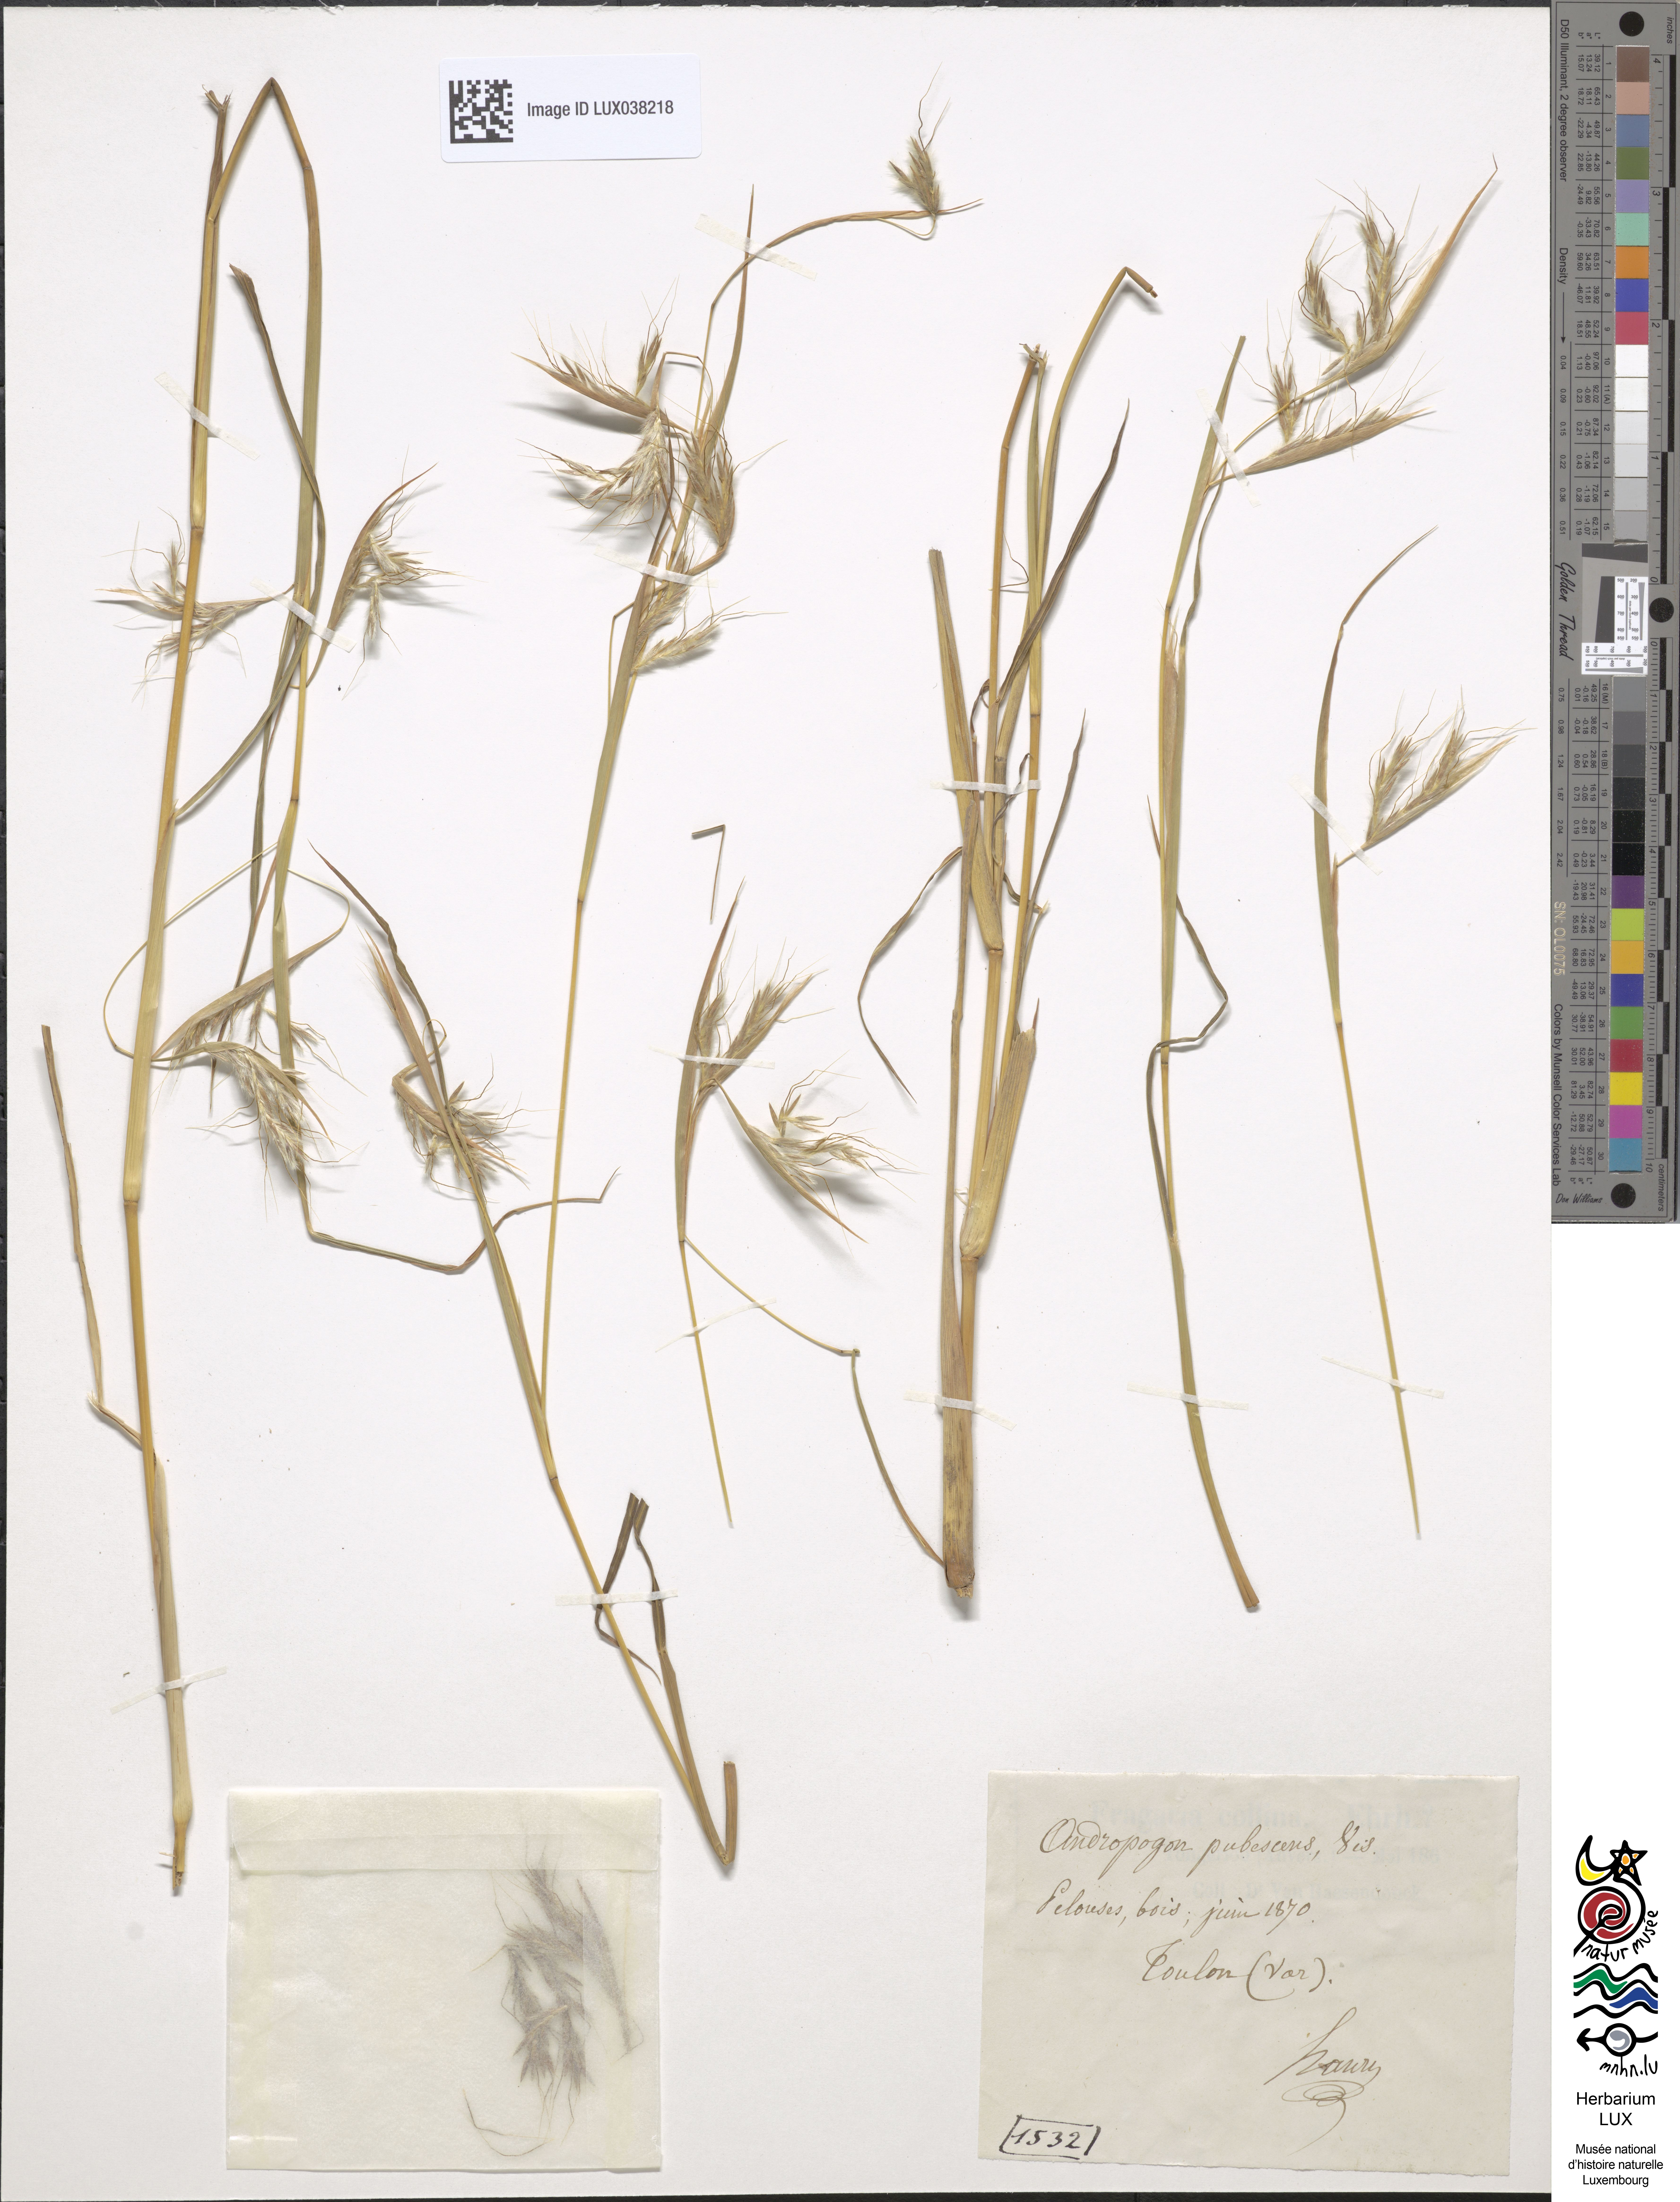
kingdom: Plantae
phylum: Tracheophyta
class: Liliopsida
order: Poales
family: Poaceae
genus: Hyparrhenia
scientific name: Hyparrhenia hirta
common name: Thatching grass
